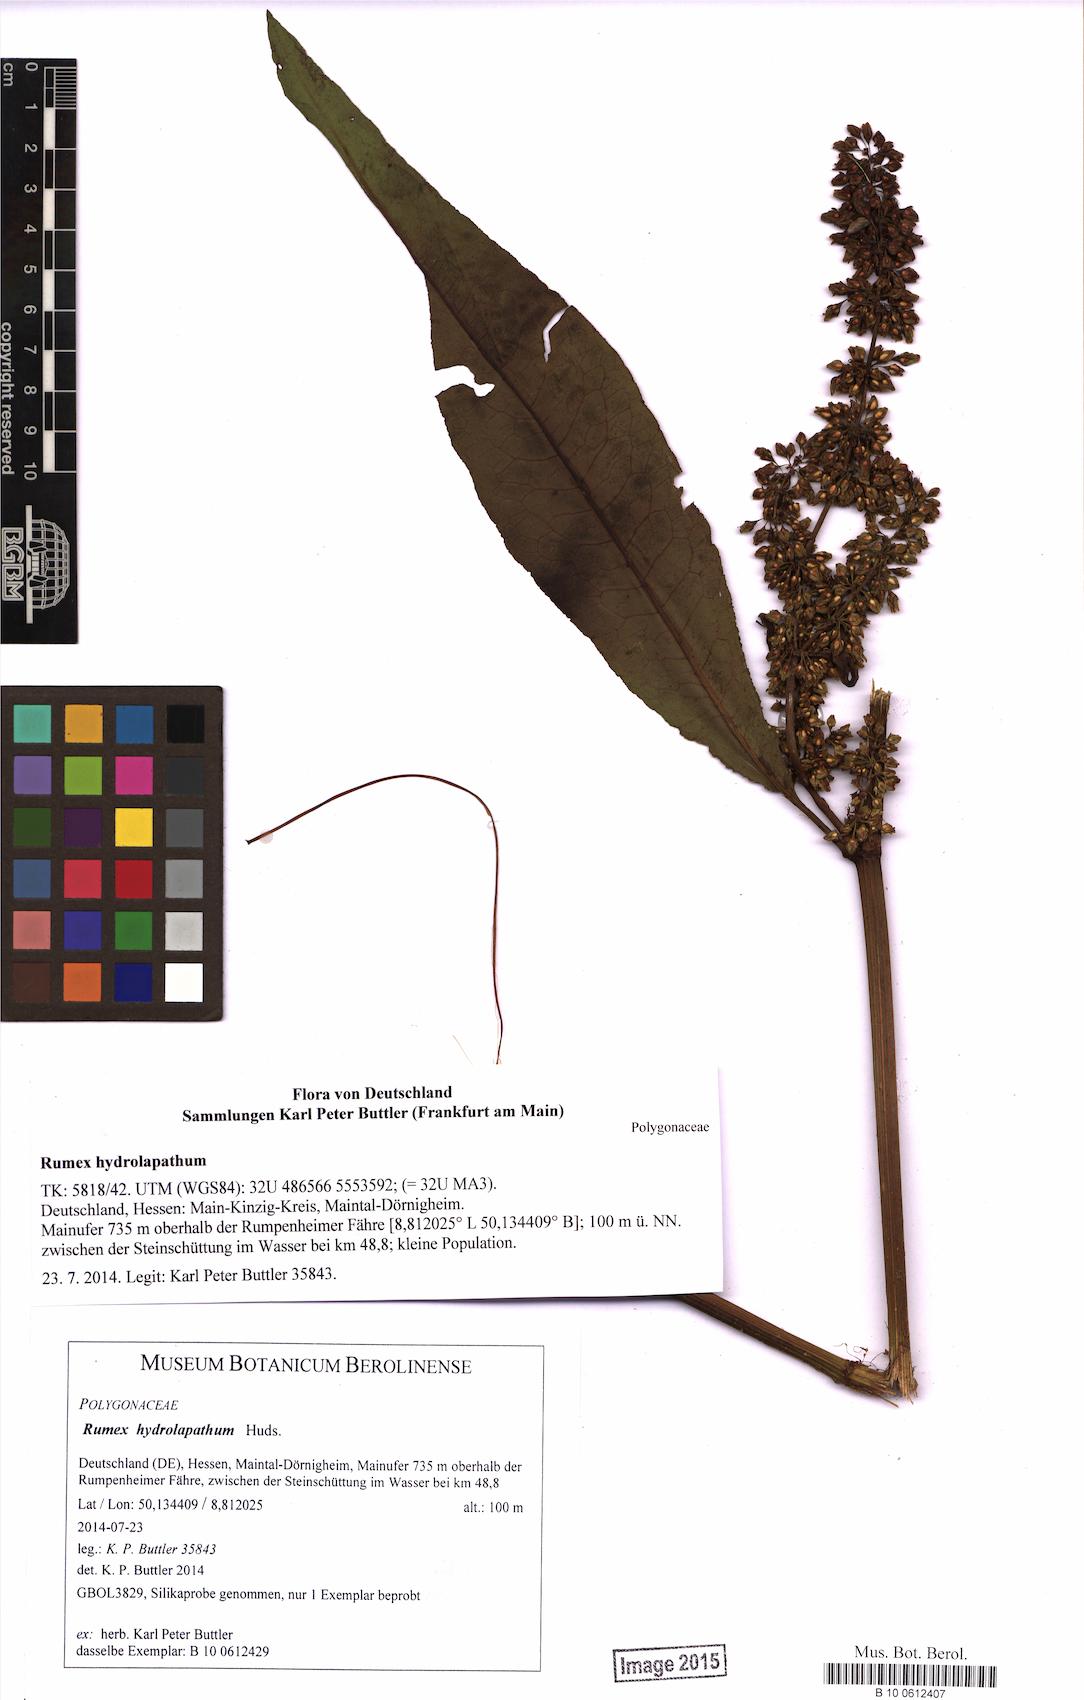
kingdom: Plantae
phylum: Tracheophyta
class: Magnoliopsida
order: Caryophyllales
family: Polygonaceae
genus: Rumex
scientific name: Rumex hydrolapathum
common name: Water dock
